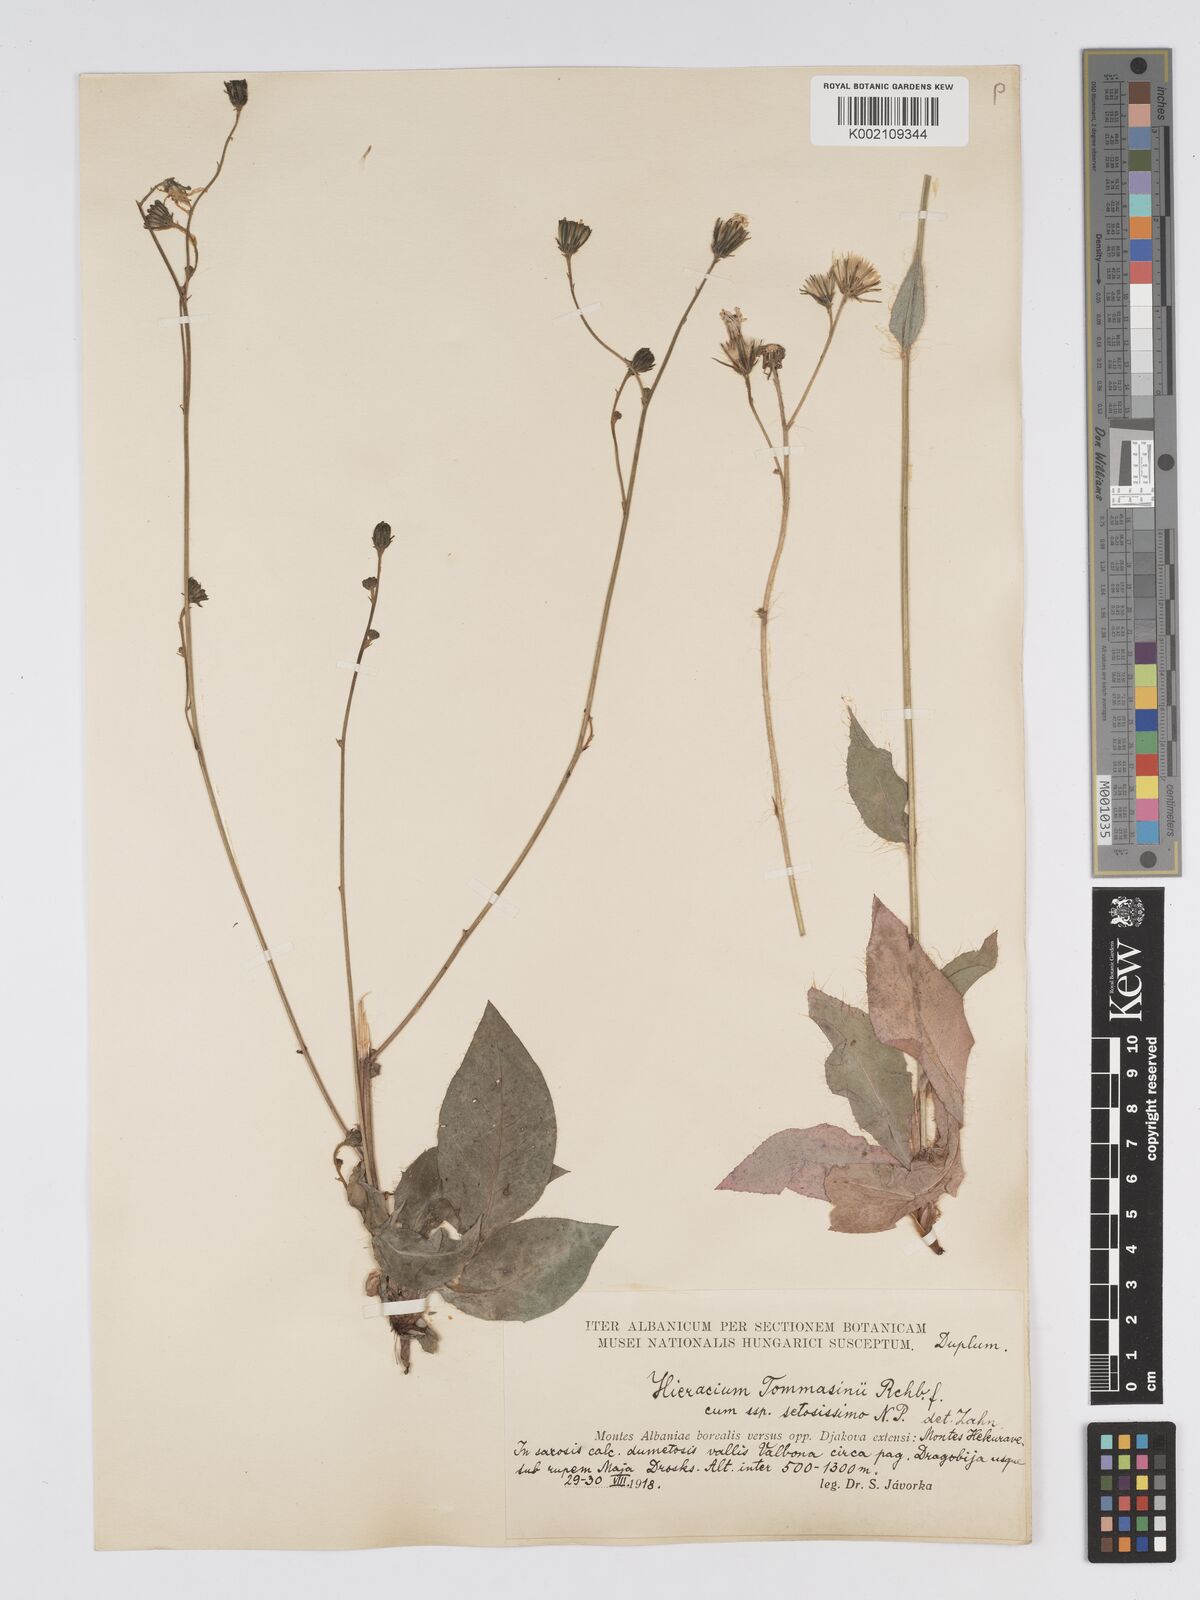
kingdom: Plantae
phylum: Tracheophyta
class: Magnoliopsida
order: Asterales
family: Asteraceae
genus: Hieracium
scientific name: Hieracium tommasinianum
